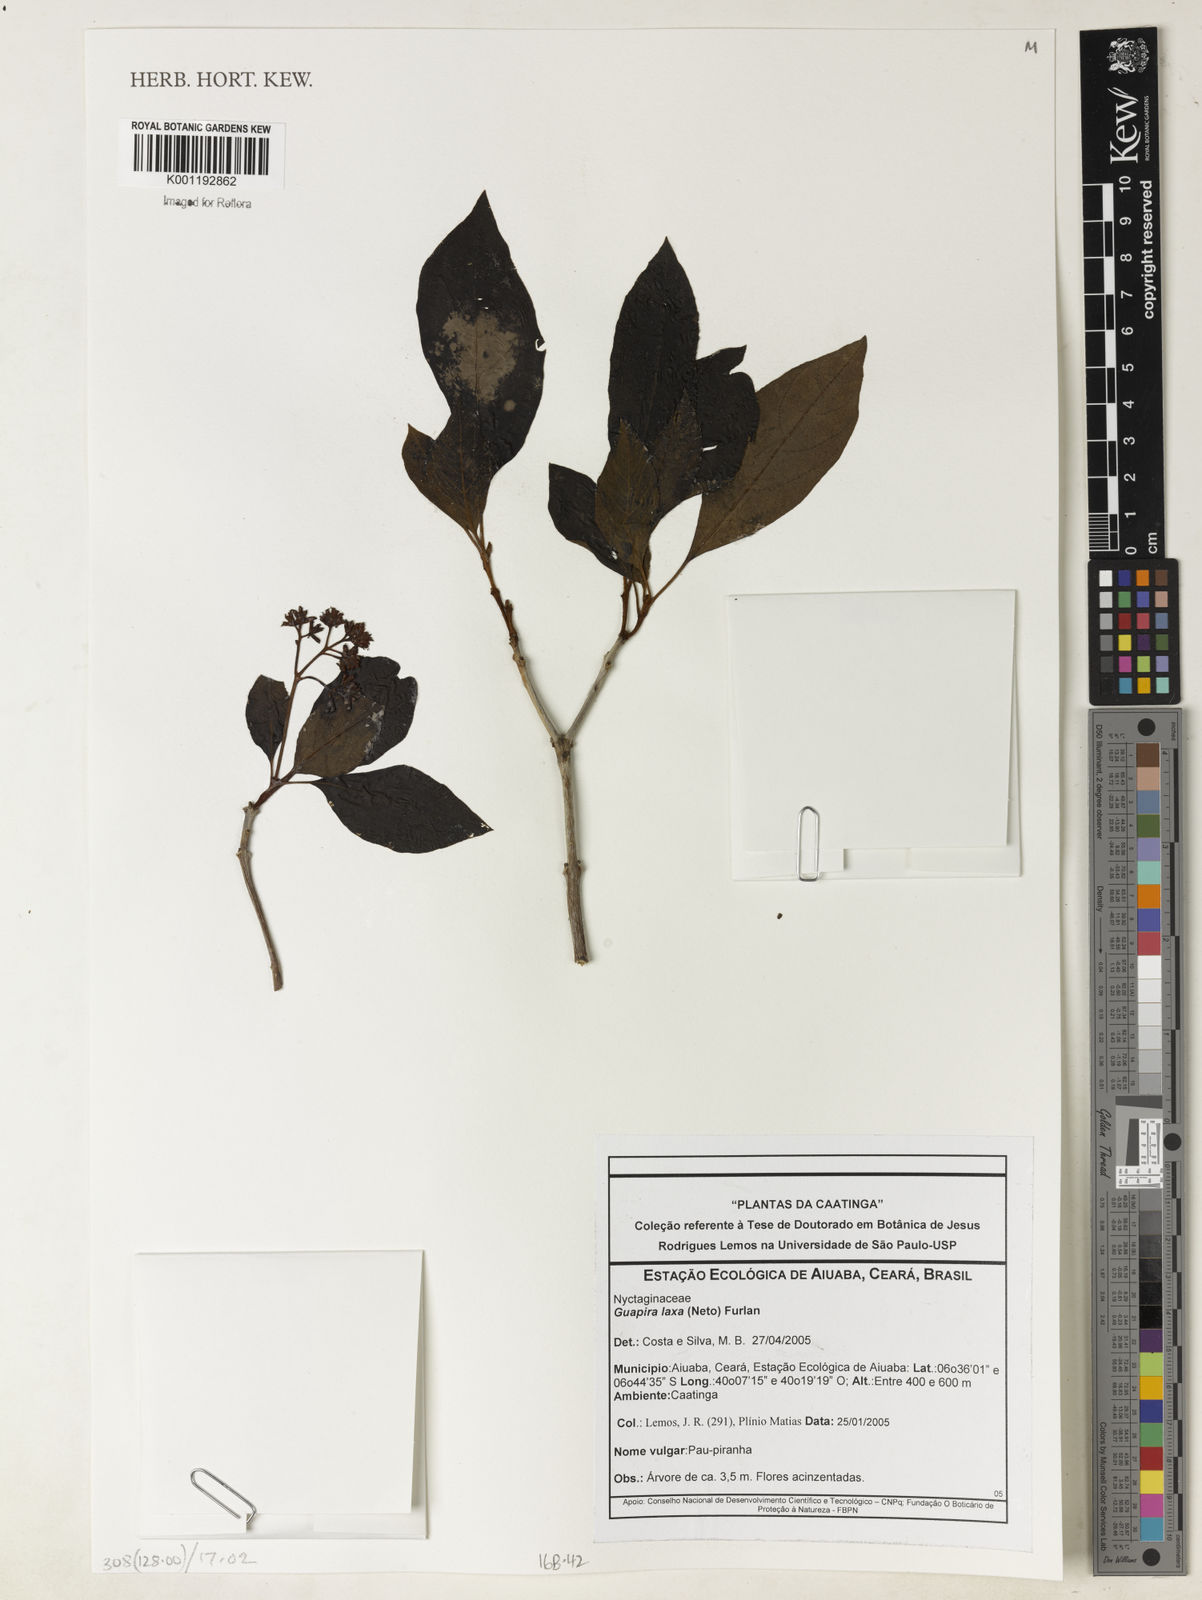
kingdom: Plantae
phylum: Tracheophyta
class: Magnoliopsida
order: Caryophyllales
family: Nyctaginaceae
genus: Guapira
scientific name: Guapira laxa
